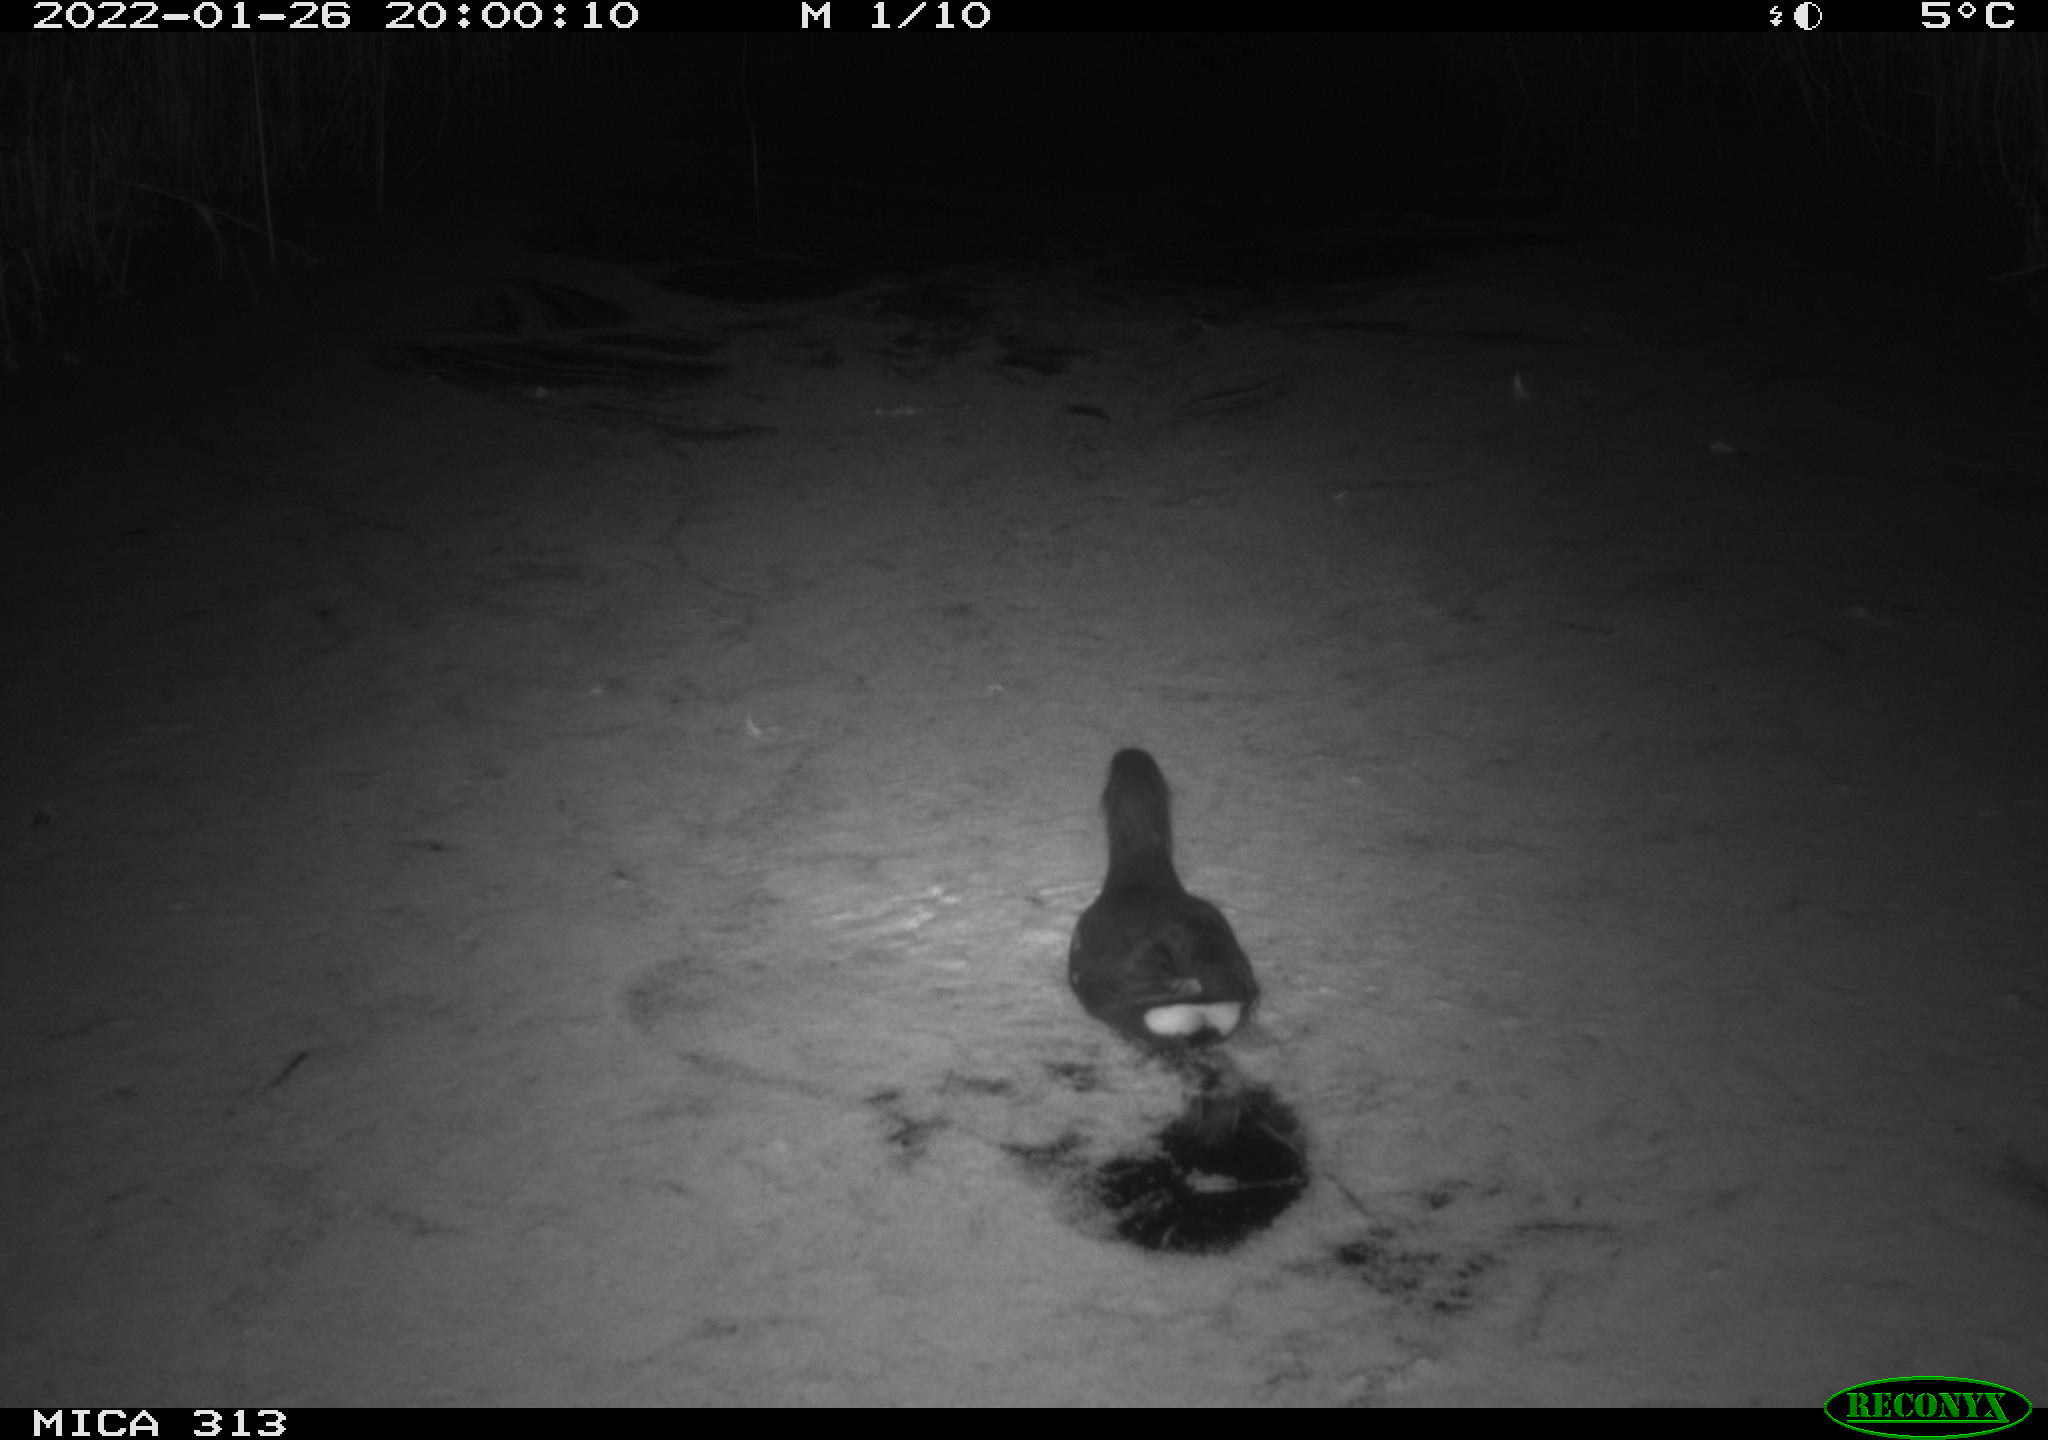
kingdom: Animalia
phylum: Chordata
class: Aves
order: Gruiformes
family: Rallidae
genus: Gallinula
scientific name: Gallinula chloropus
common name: Common moorhen
